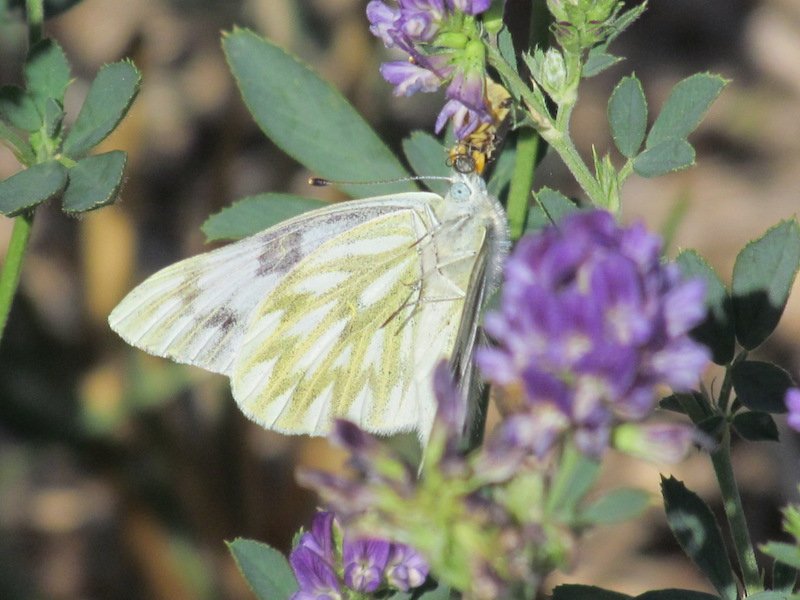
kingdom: Animalia
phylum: Arthropoda
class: Insecta
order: Lepidoptera
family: Pieridae
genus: Pontia
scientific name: Pontia occidentalis
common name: Western White
